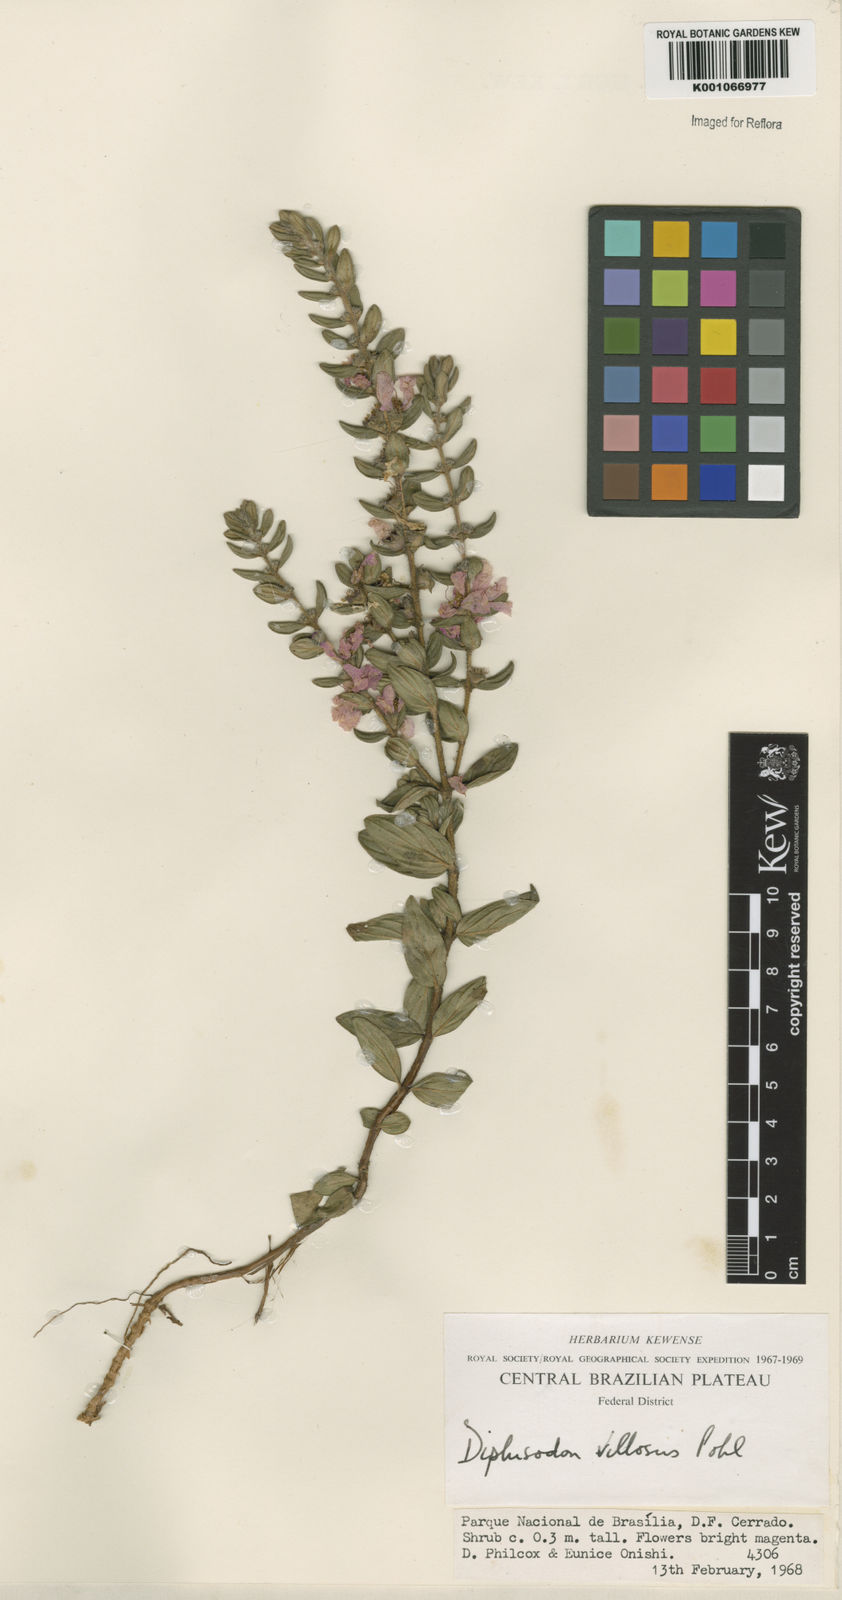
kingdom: Plantae
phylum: Tracheophyta
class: Magnoliopsida
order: Myrtales
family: Lythraceae
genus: Diplusodon
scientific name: Diplusodon villosus
